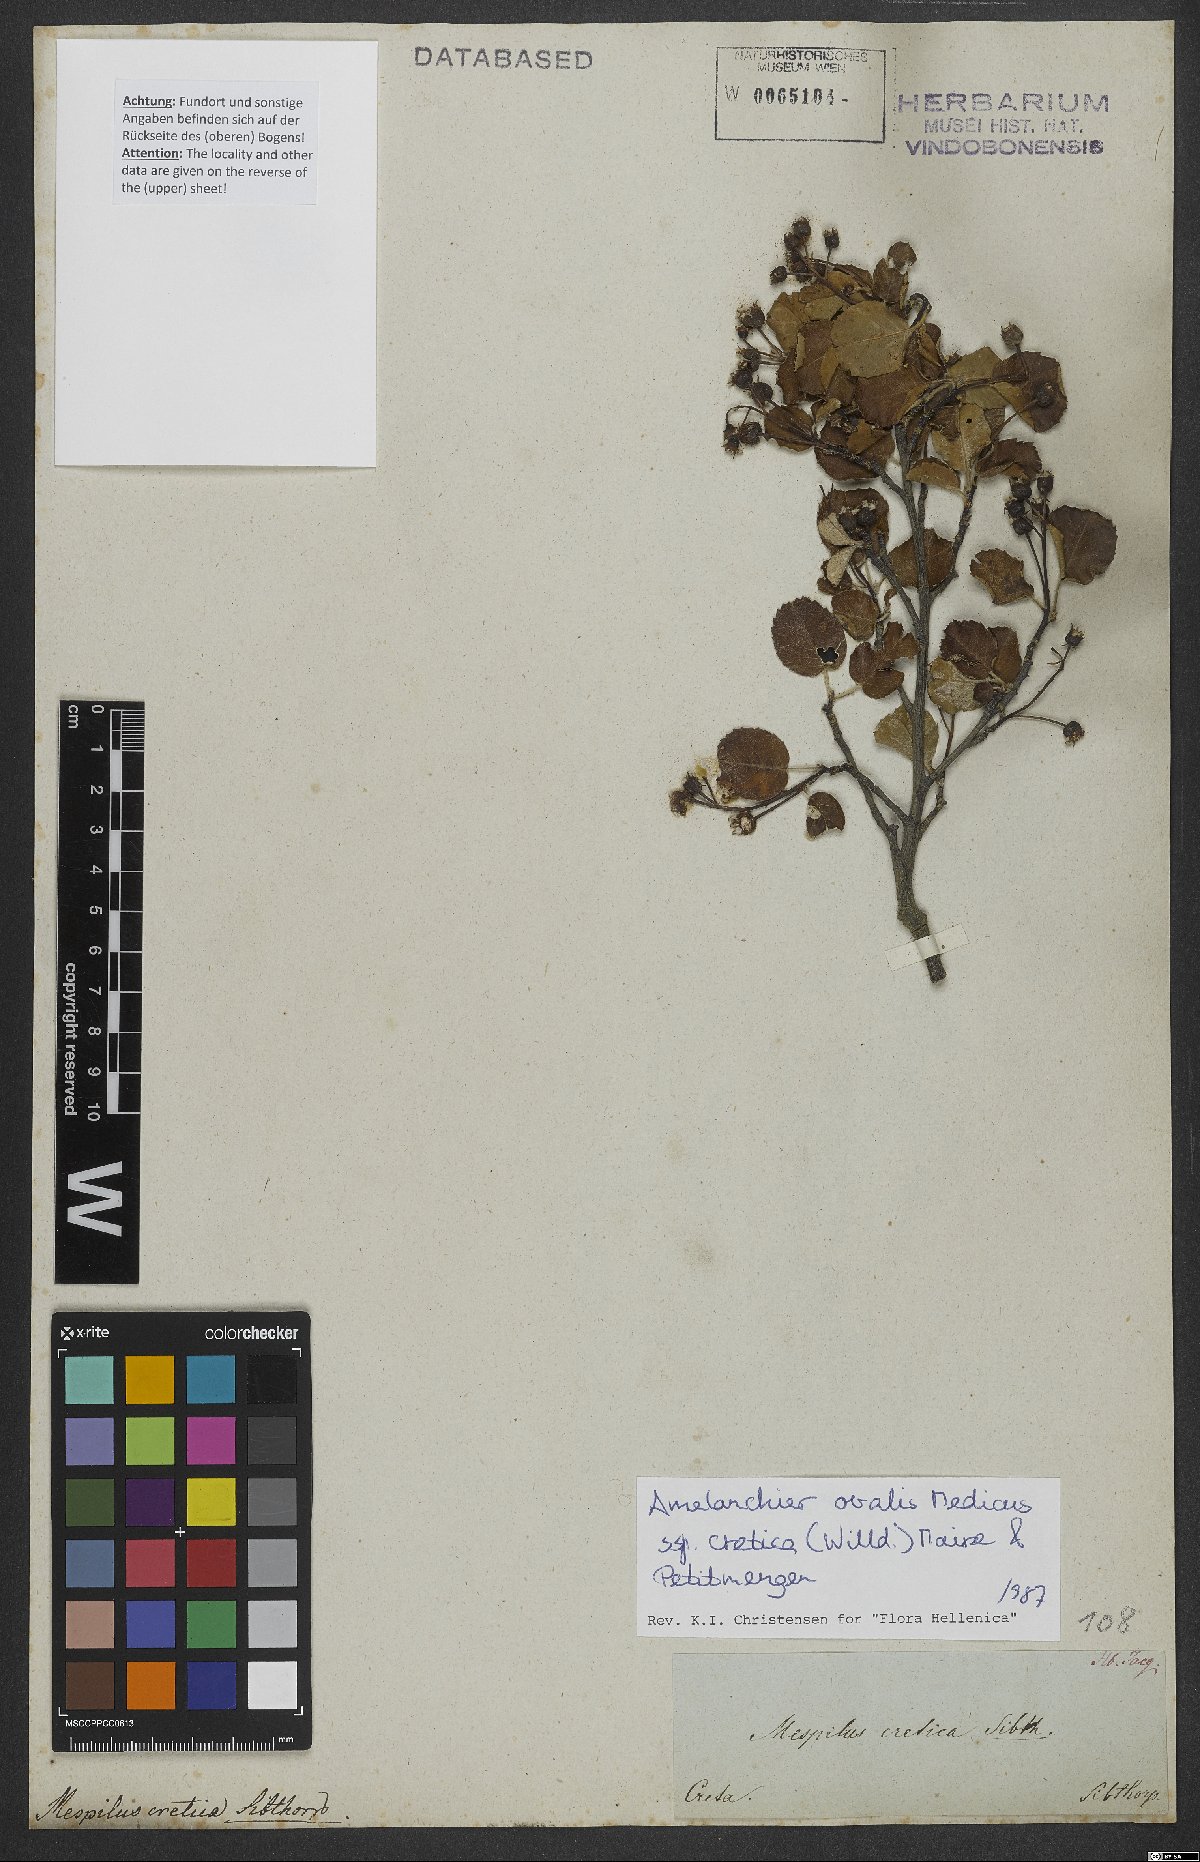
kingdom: Plantae
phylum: Tracheophyta
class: Magnoliopsida
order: Rosales
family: Rosaceae
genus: Amelanchier
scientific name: Amelanchier ovalis
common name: Serviceberry
